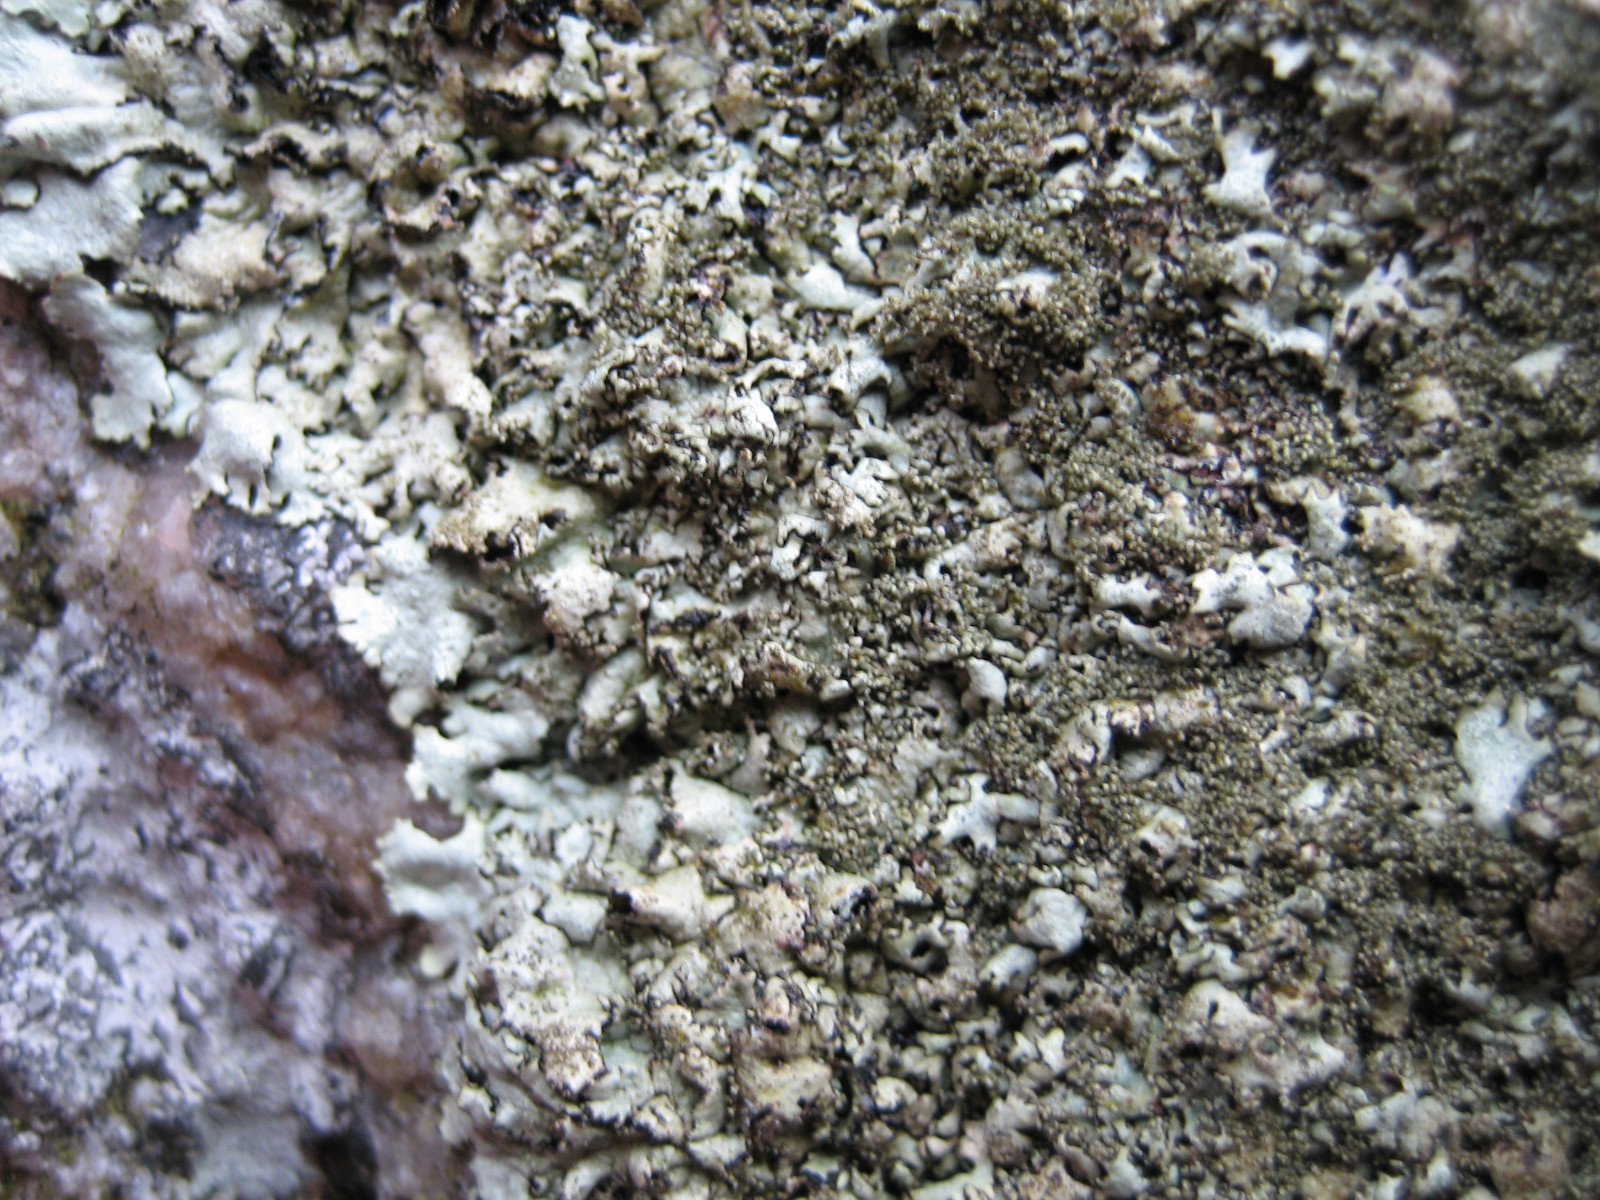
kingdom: Fungi
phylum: Ascomycota
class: Lecanoromycetes
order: Lecanorales
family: Parmeliaceae
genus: Xanthoparmelia
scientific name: Xanthoparmelia conspersa
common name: messing-skållav
